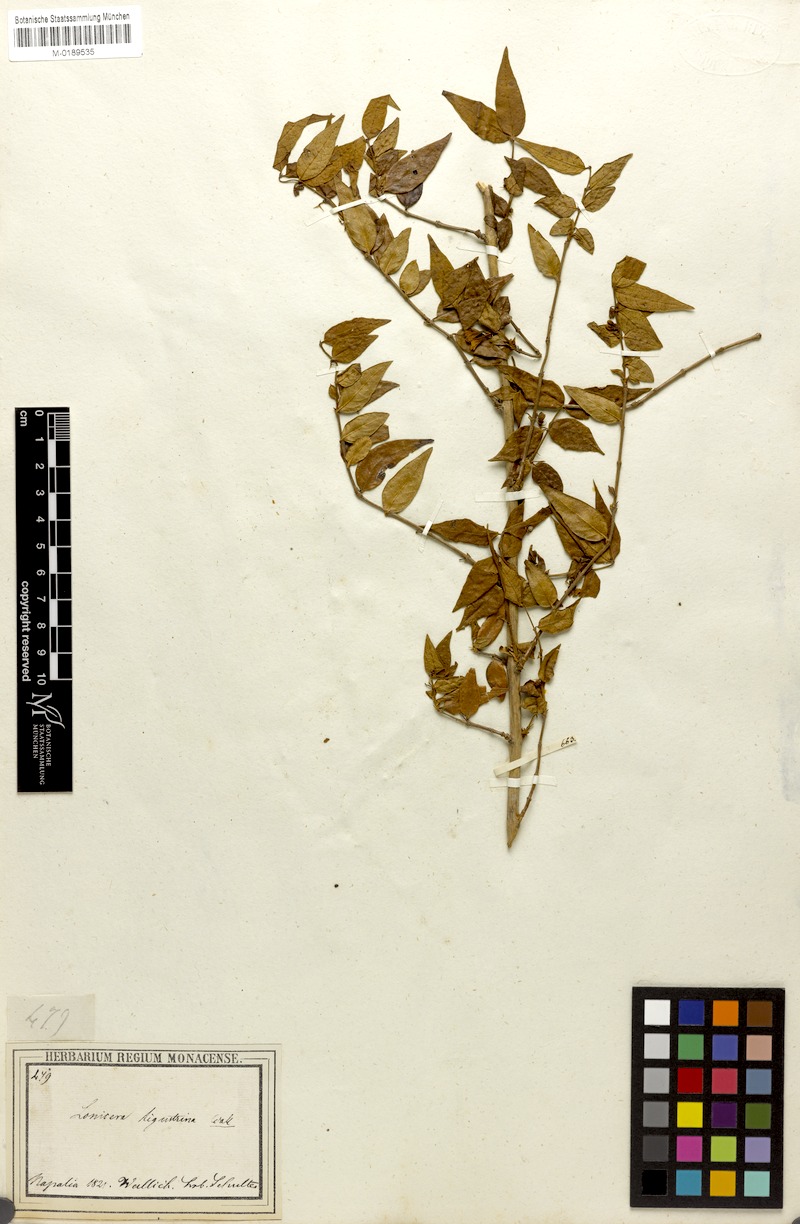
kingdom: Plantae
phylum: Tracheophyta
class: Magnoliopsida
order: Dipsacales
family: Caprifoliaceae
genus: Lonicera
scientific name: Lonicera ligustrina
